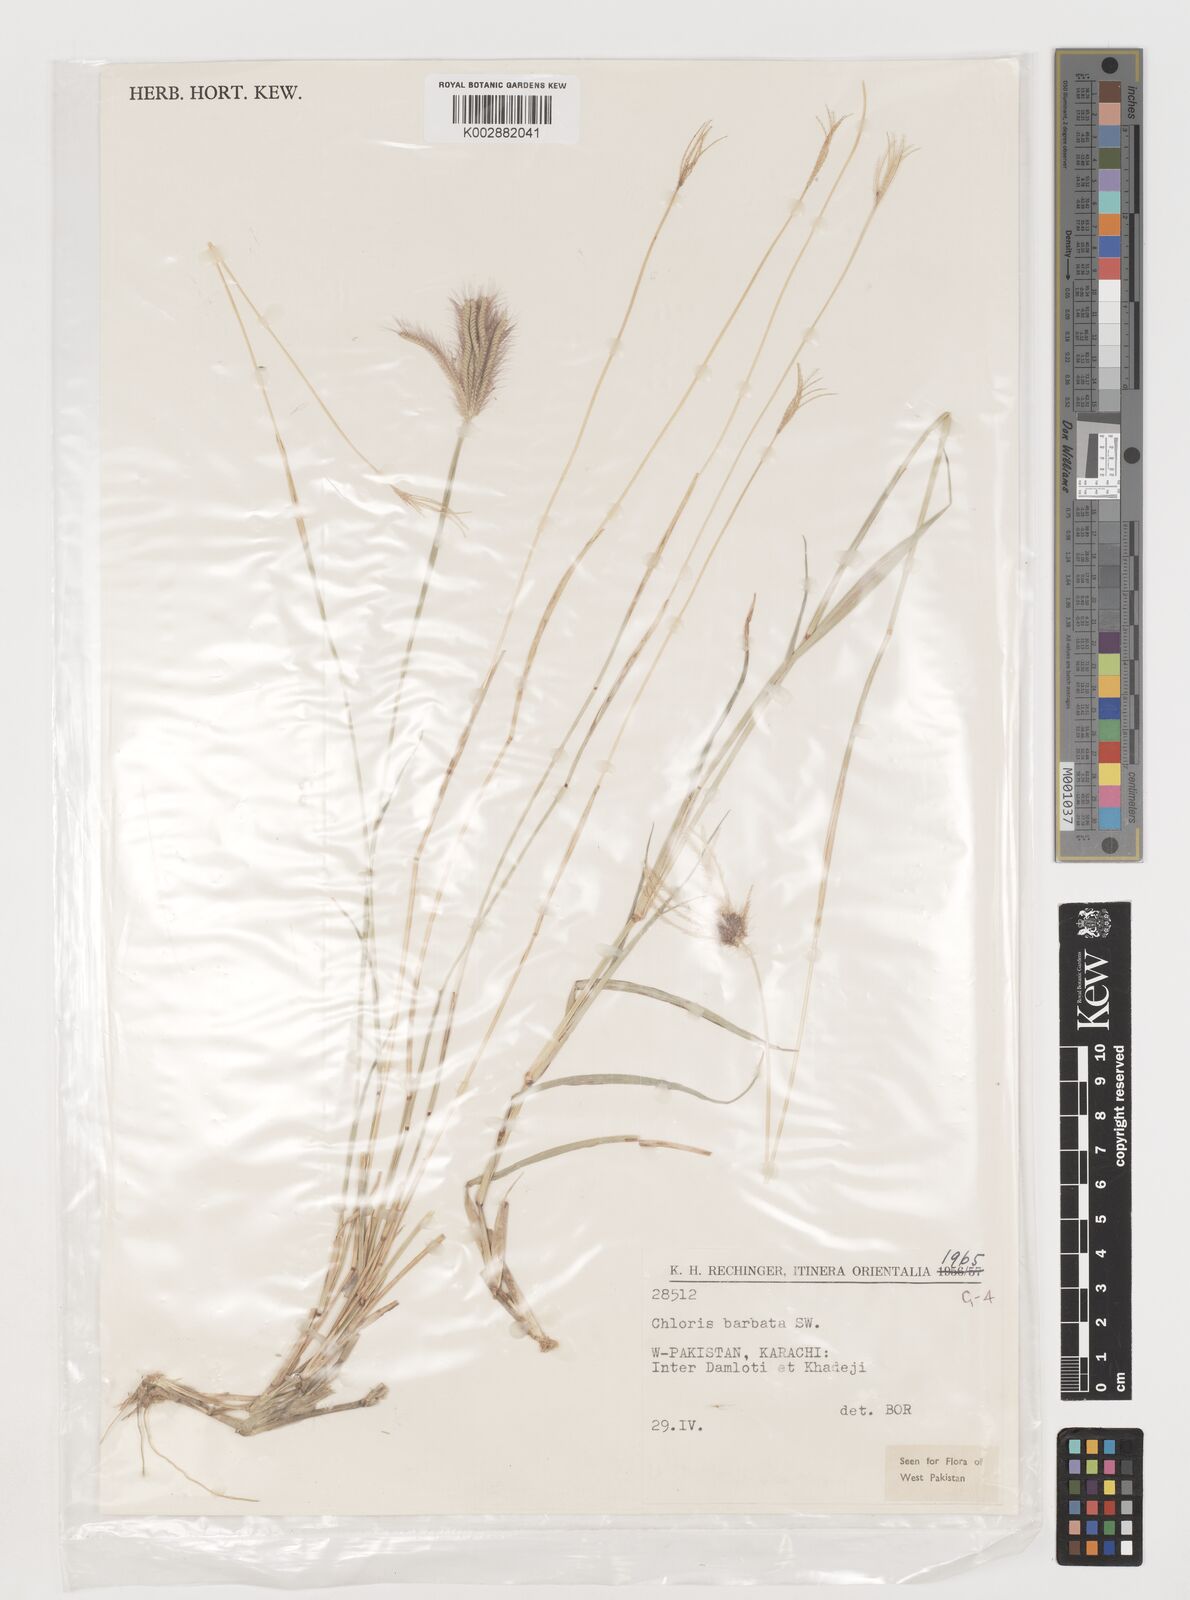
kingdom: Plantae
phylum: Tracheophyta
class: Liliopsida
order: Poales
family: Poaceae
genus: Chloris
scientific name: Chloris barbata
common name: Swollen fingergrass
